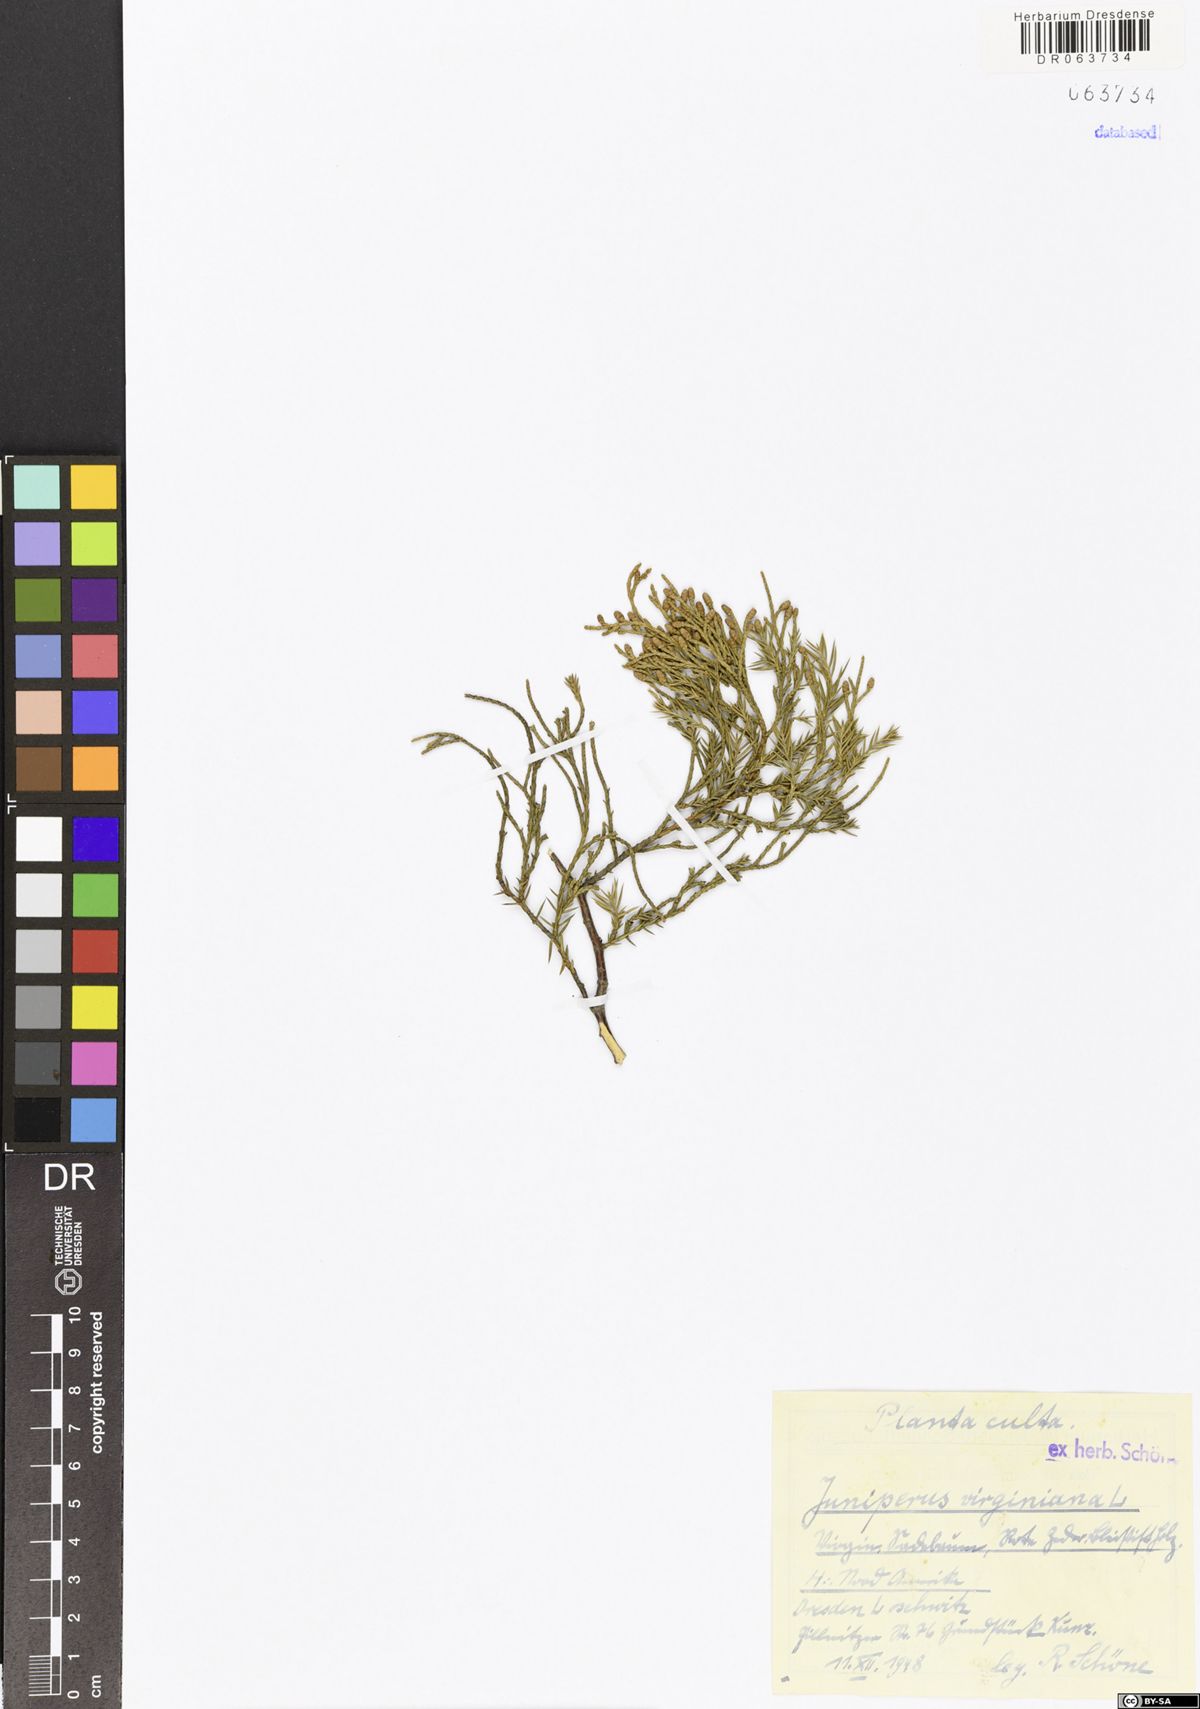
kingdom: Plantae
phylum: Tracheophyta
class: Pinopsida
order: Pinales
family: Cupressaceae
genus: Juniperus
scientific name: Juniperus virginiana
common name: Red juniper
